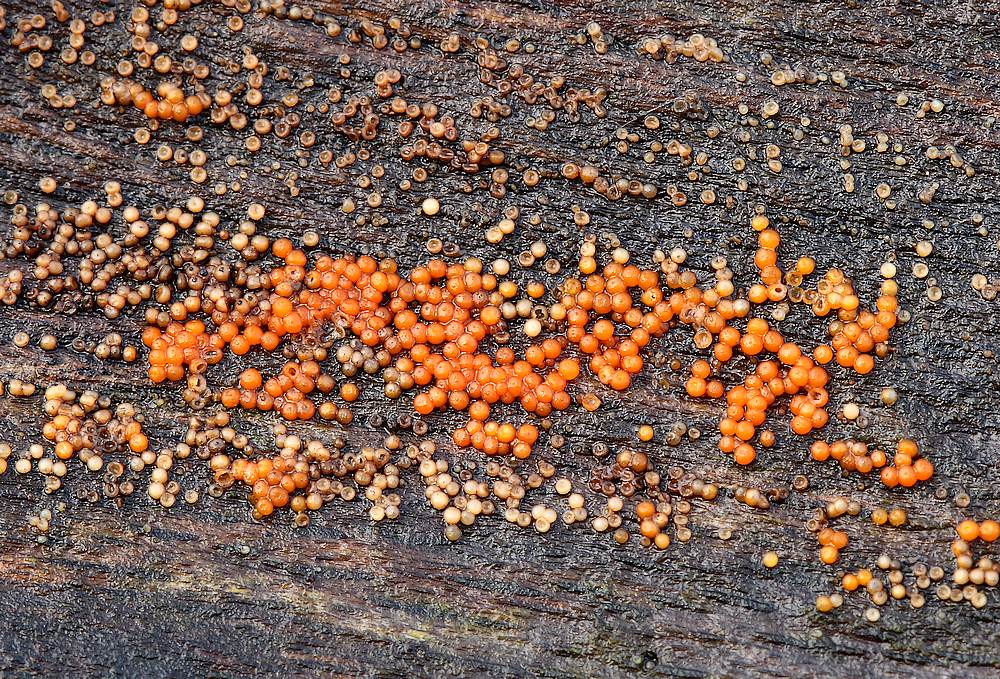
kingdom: Fungi
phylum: Ascomycota
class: Sordariomycetes
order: Hypocreales
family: Nectriaceae
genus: Hydropisphaera
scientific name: Hydropisphaera peziza
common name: skålformet gyldenkerne
